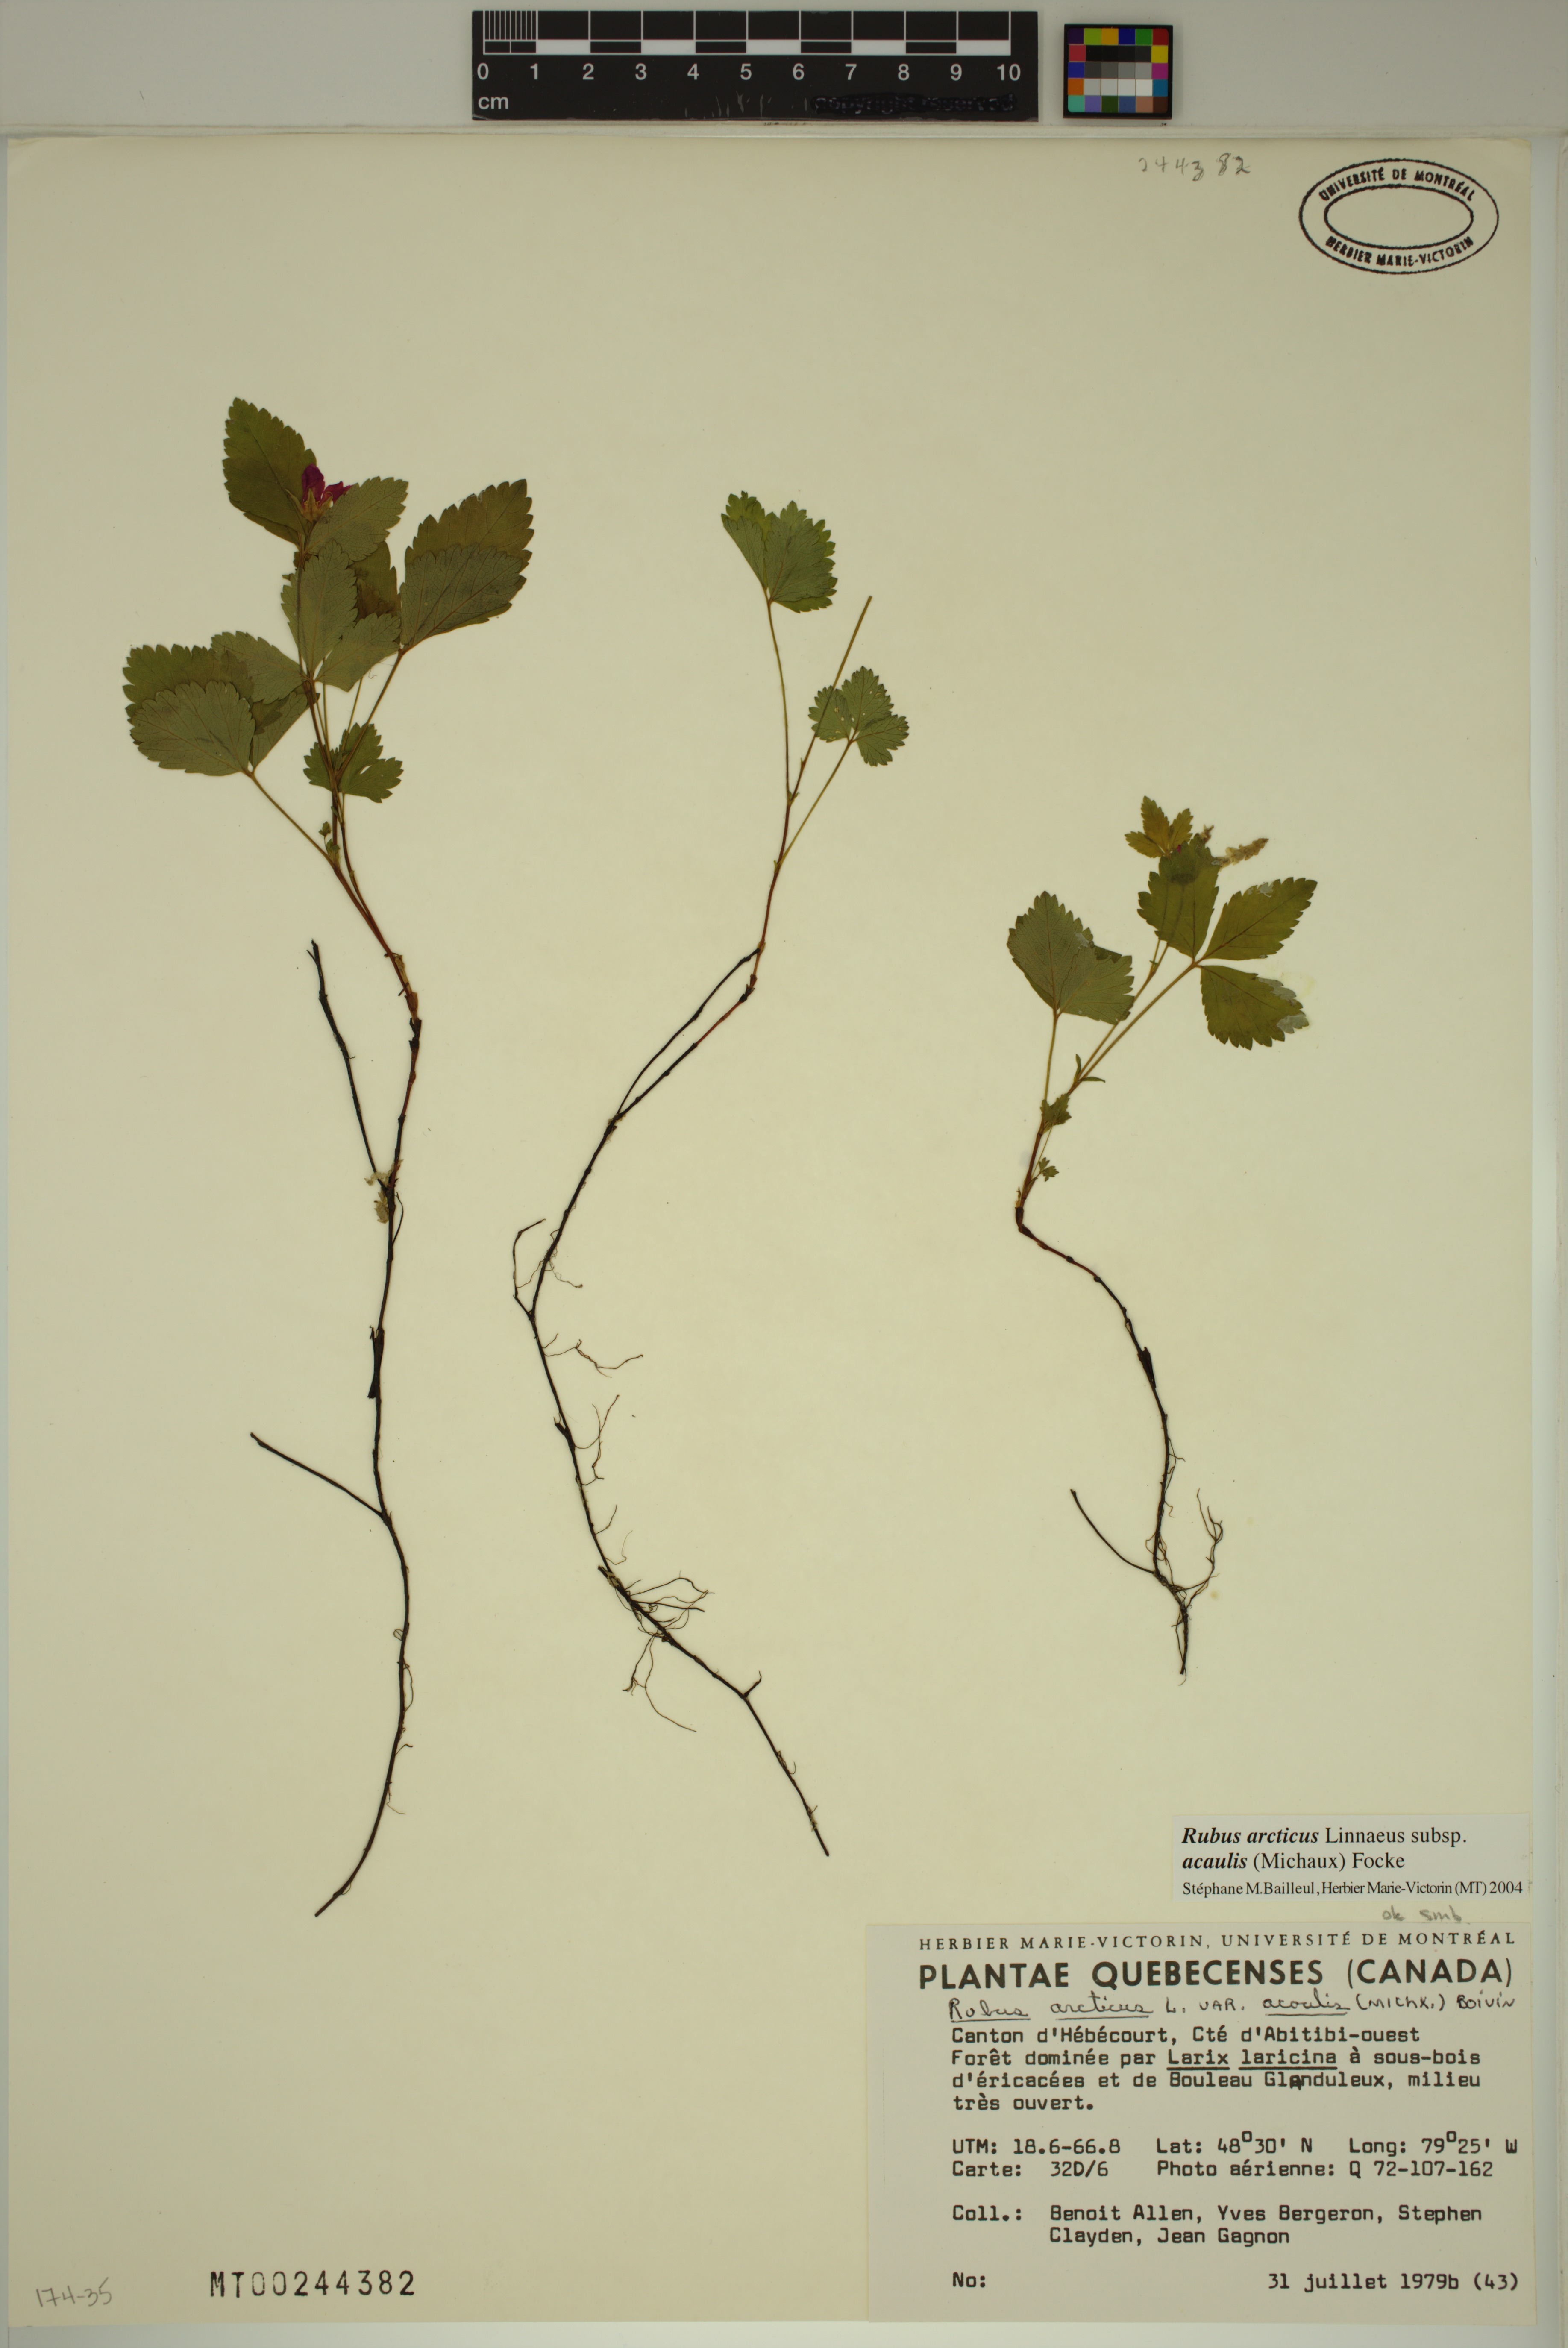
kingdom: Plantae
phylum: Tracheophyta
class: Magnoliopsida
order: Rosales
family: Rosaceae
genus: Rubus
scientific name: Rubus arcticus
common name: Arctic bramble
